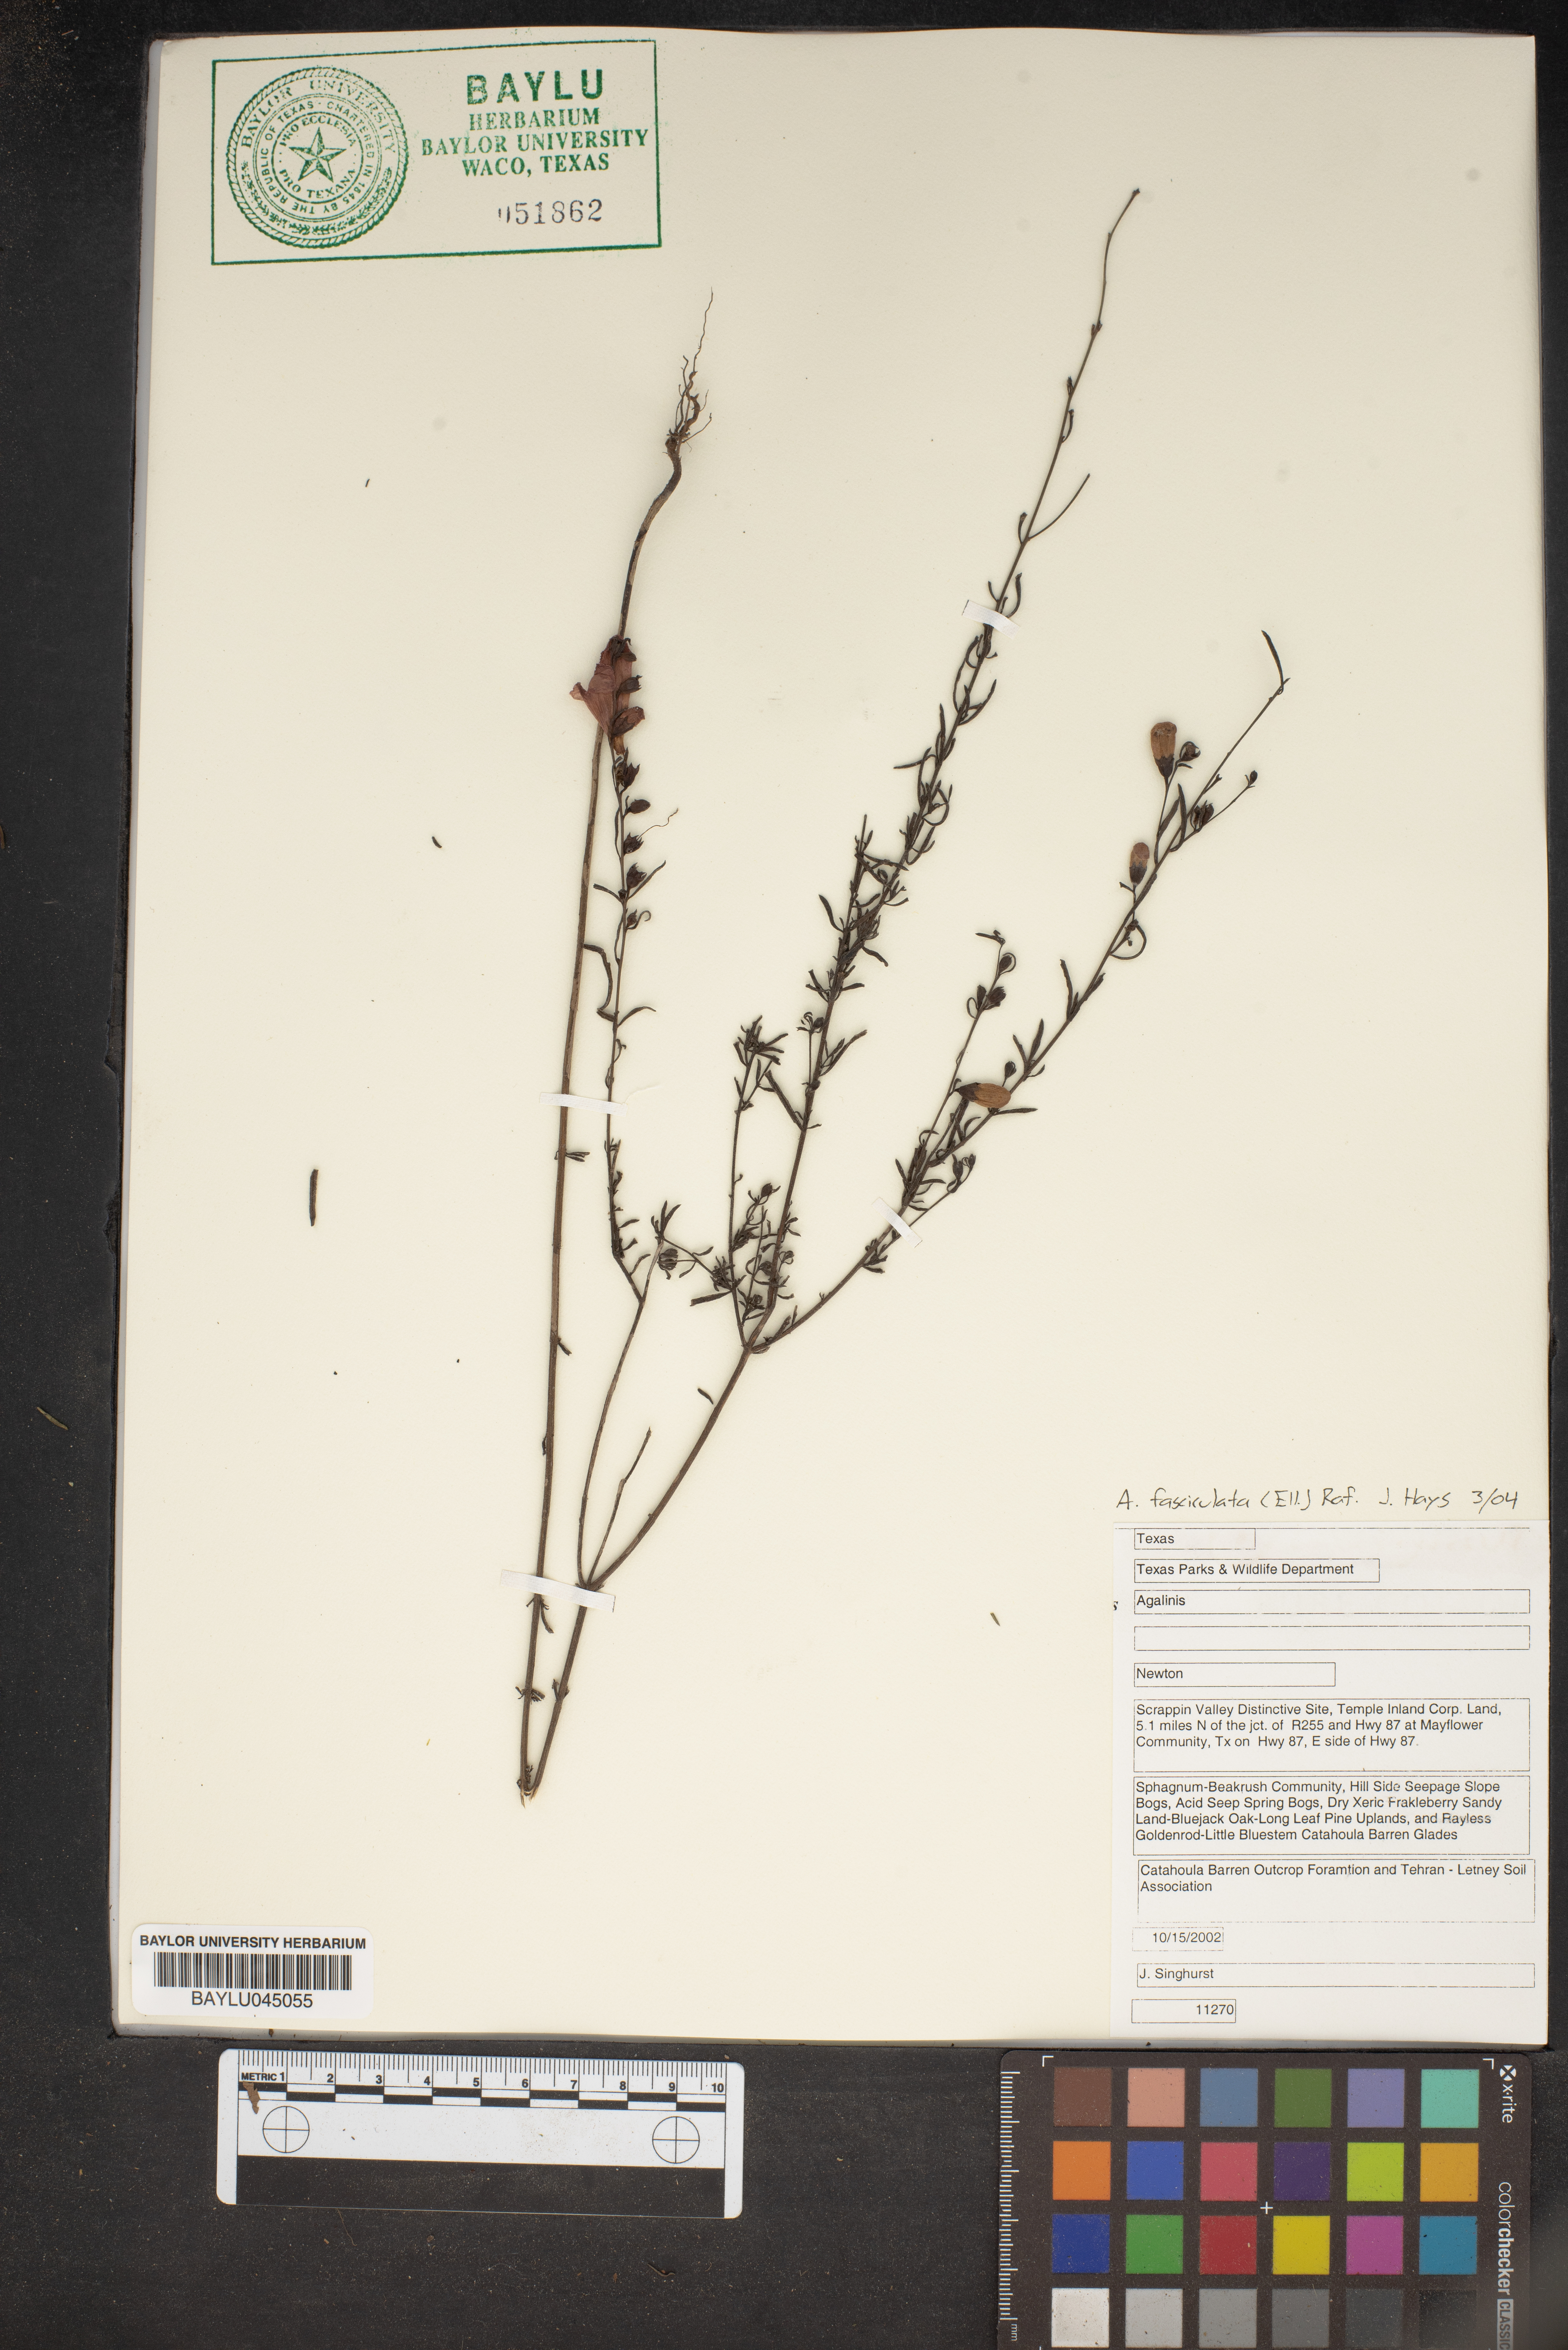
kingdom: Plantae
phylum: Tracheophyta
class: Magnoliopsida
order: Lamiales
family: Orobanchaceae
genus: Agalinis
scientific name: Agalinis fasciculata
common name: Beach false foxglove
